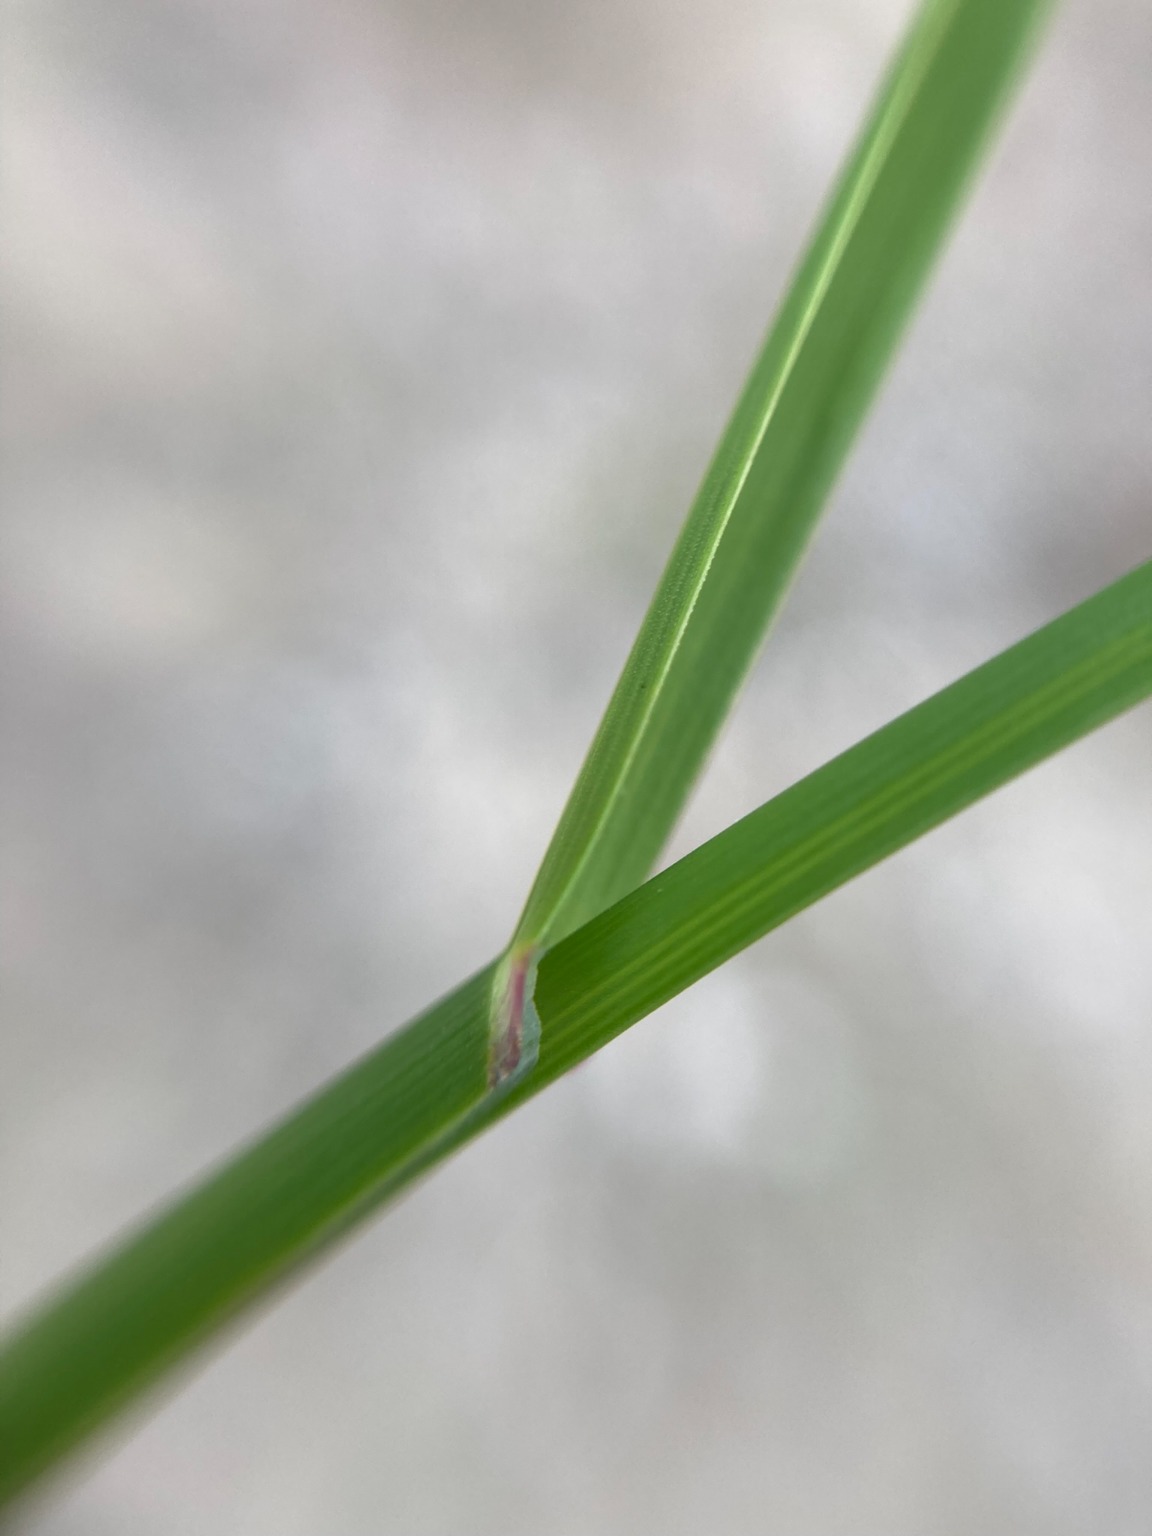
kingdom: Plantae
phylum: Tracheophyta
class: Liliopsida
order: Poales
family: Poaceae
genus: Puccinellia
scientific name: Puccinellia maritima
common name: Strand-annelgræs
